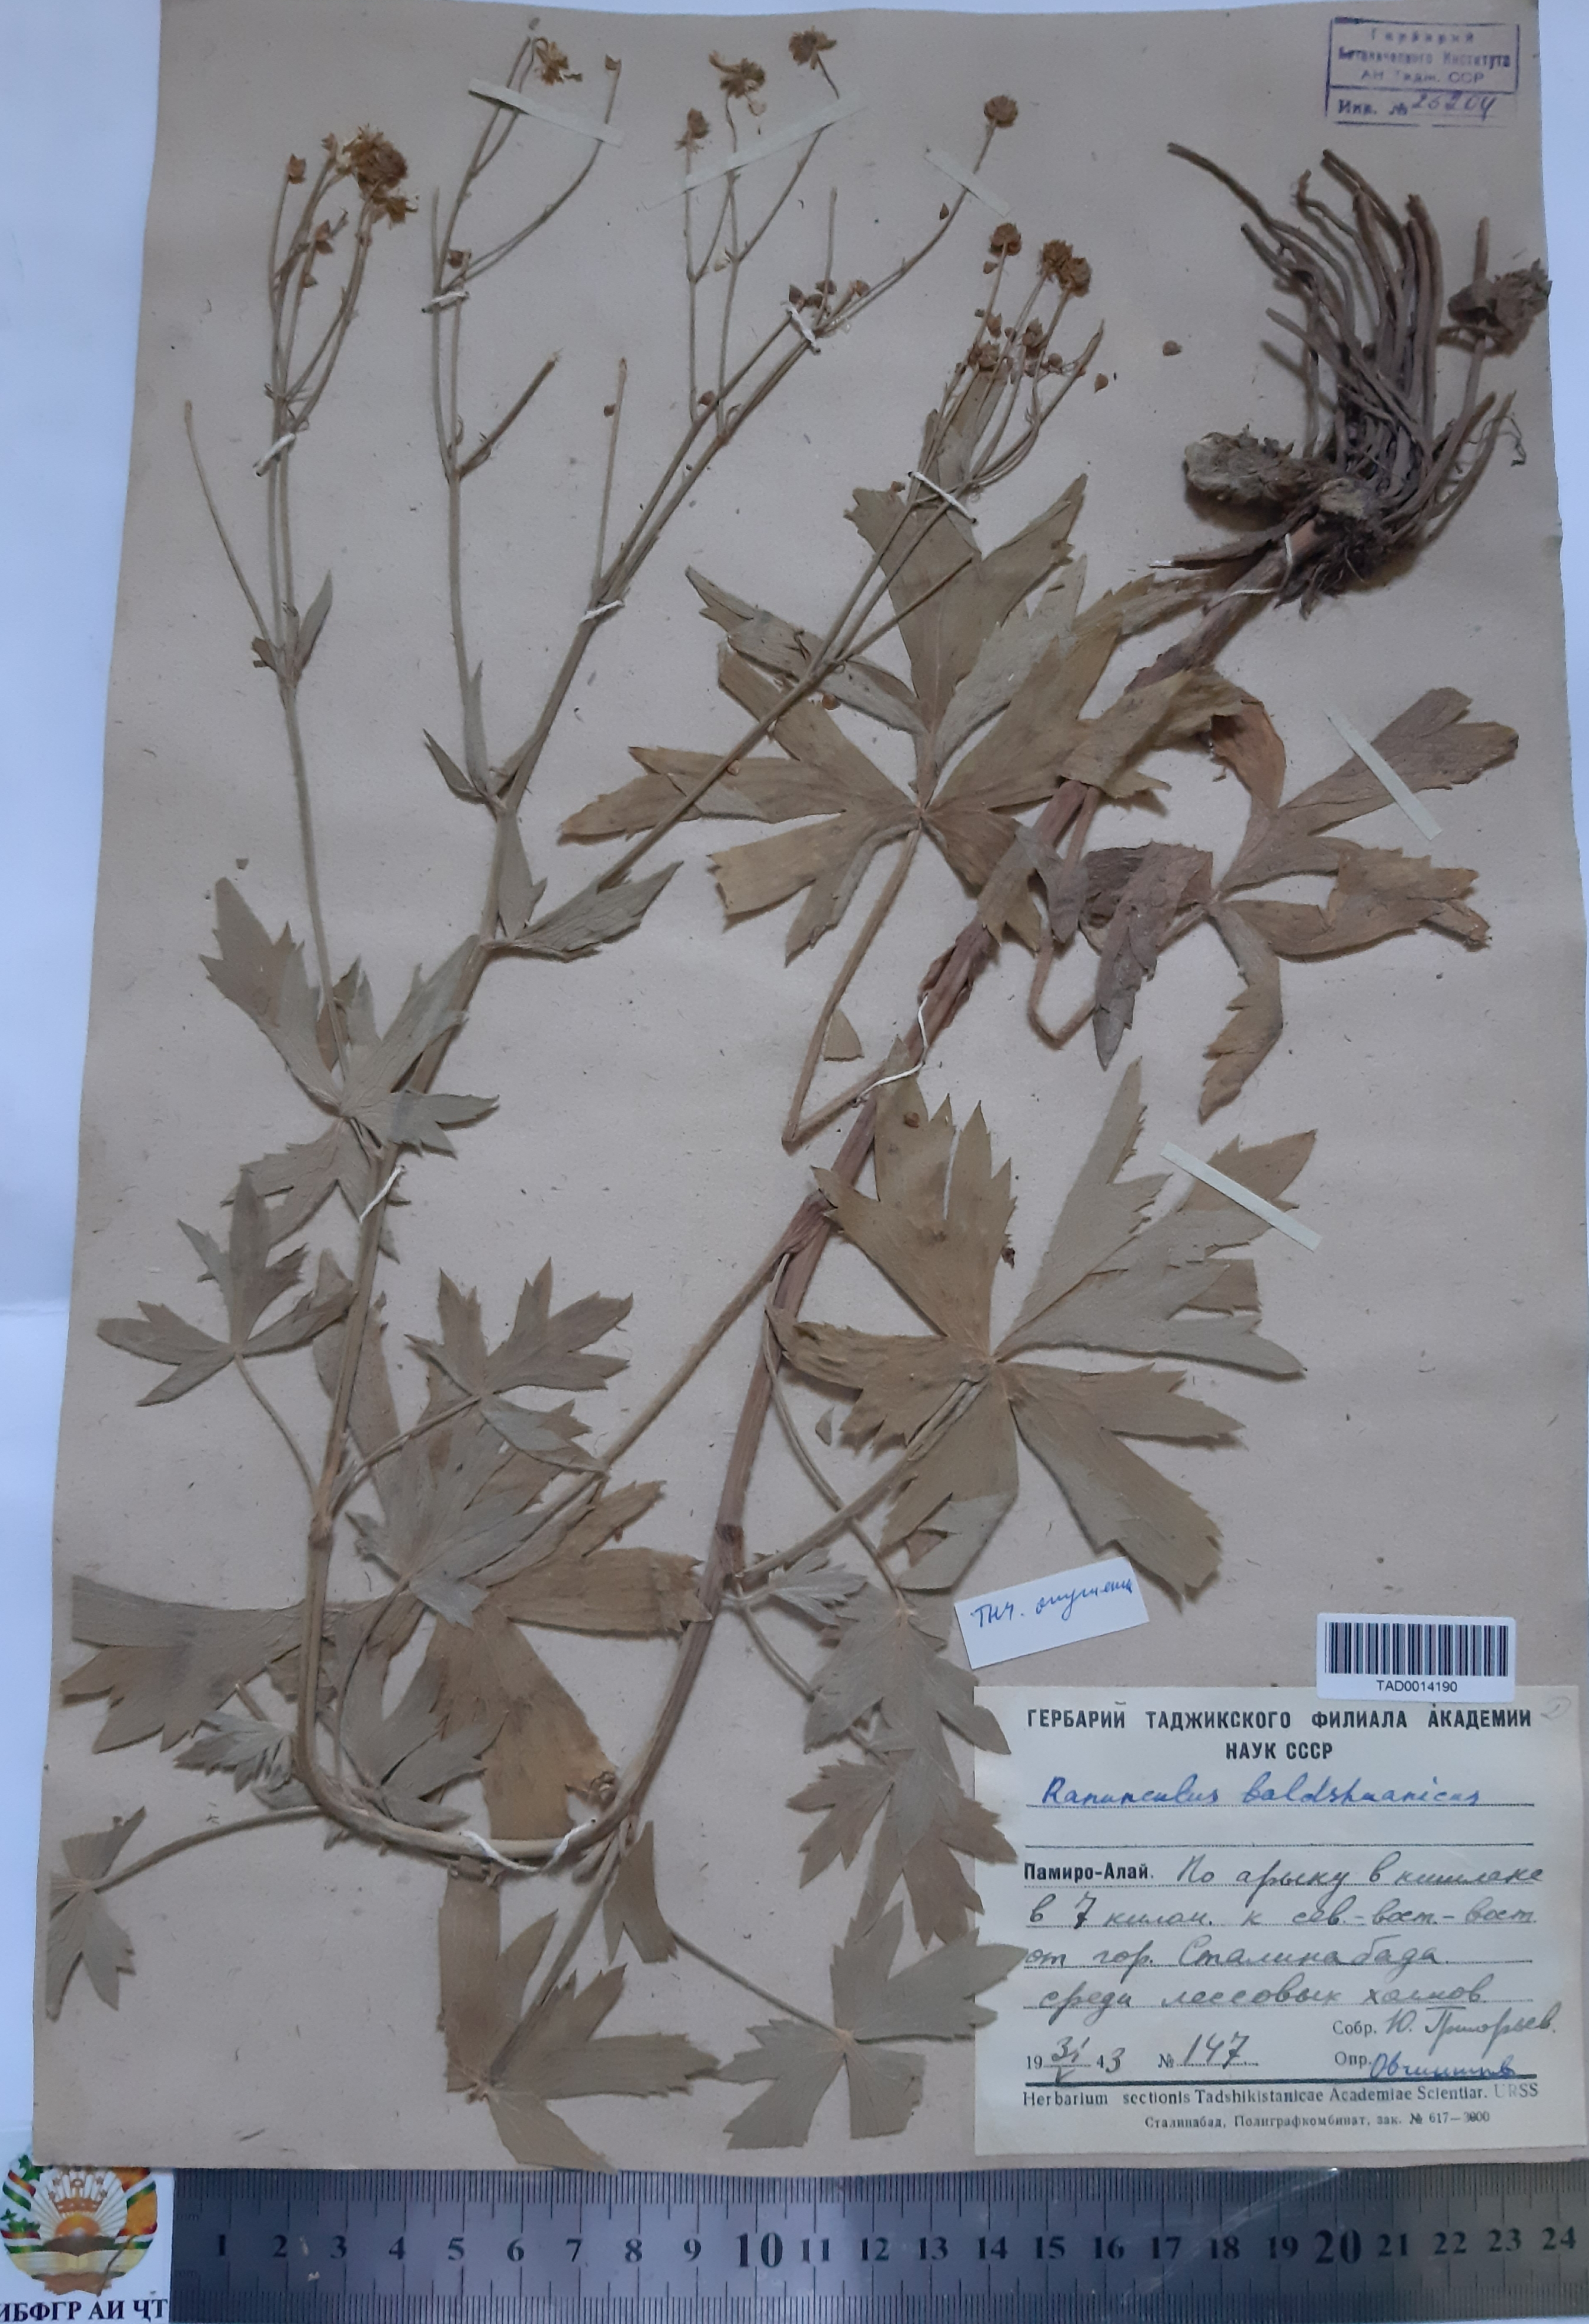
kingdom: Plantae
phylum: Tracheophyta
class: Magnoliopsida
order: Ranunculales
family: Ranunculaceae
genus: Ranunculus
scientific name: Ranunculus baldshuanicus
